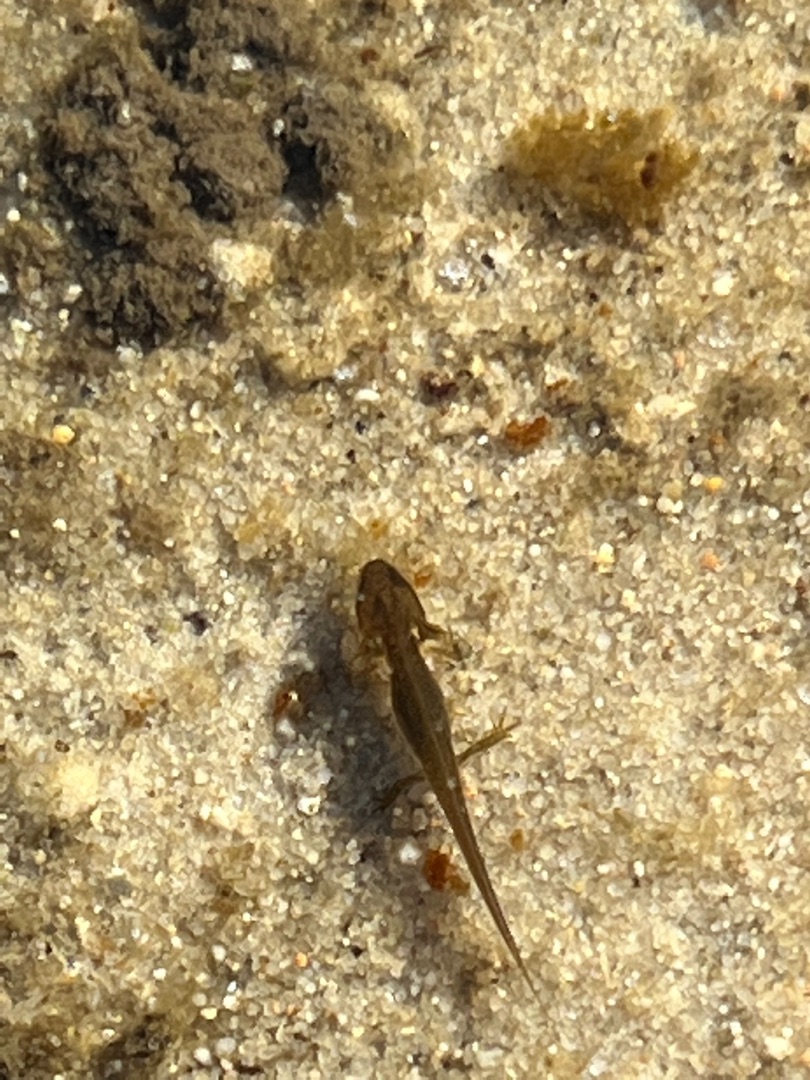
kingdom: Animalia
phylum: Chordata
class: Amphibia
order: Caudata
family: Salamandridae
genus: Lissotriton
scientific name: Lissotriton vulgaris
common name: Lille vandsalamander
